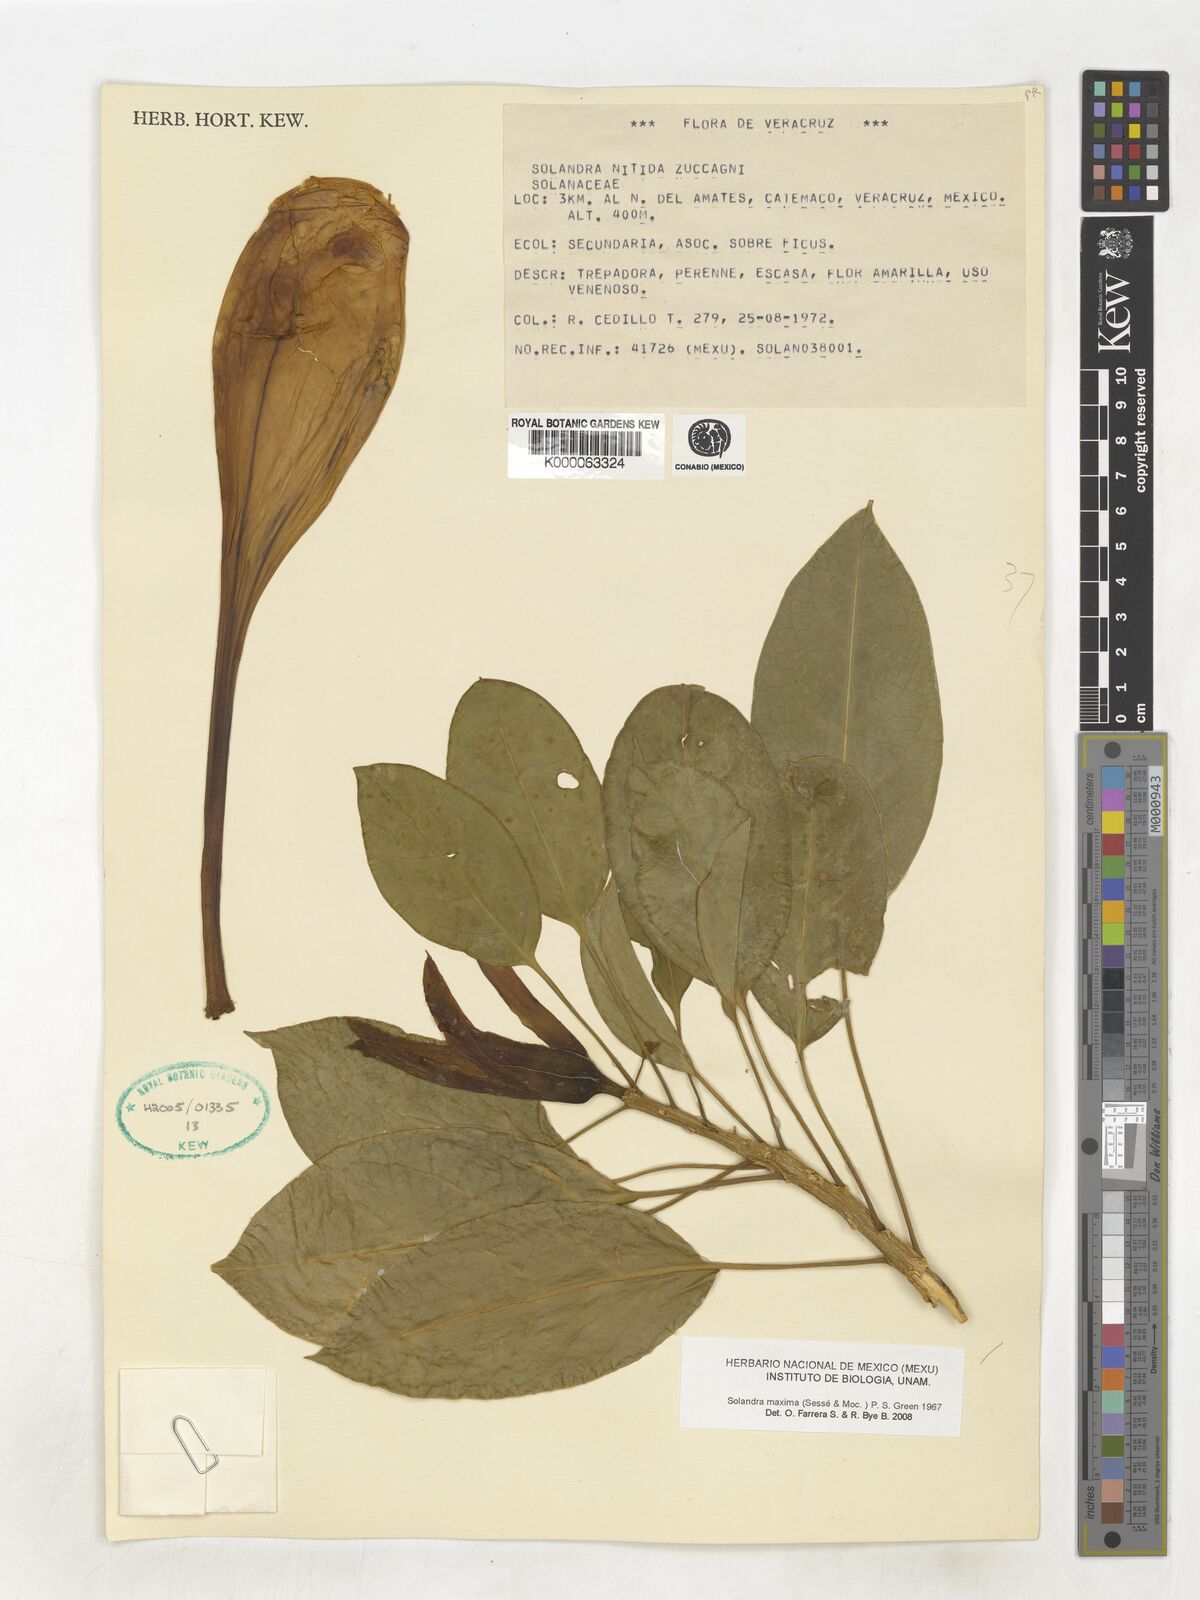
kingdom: Plantae
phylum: Tracheophyta
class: Magnoliopsida
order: Solanales
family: Solanaceae
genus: Solandra
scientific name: Solandra grandiflora
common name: Showy chalicevine
